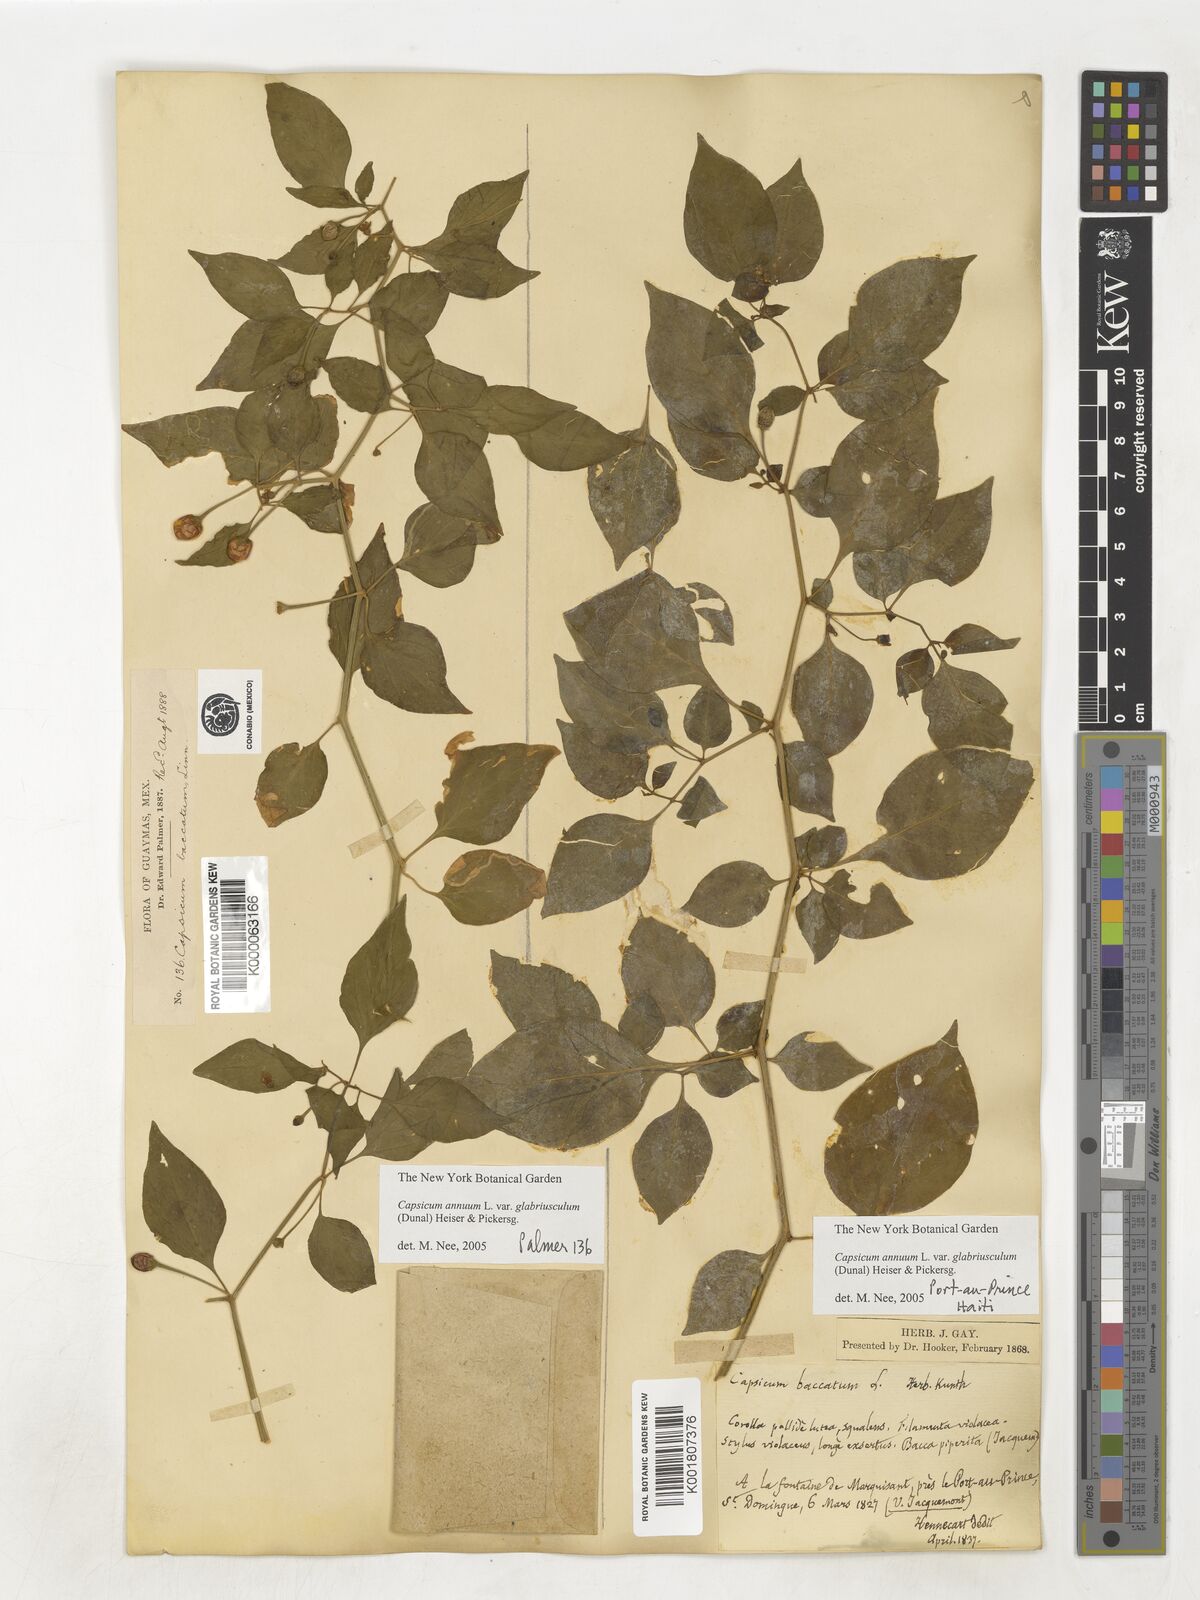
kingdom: Plantae
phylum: Tracheophyta
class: Magnoliopsida
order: Solanales
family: Solanaceae
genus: Capsicum
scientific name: Capsicum baccatum
